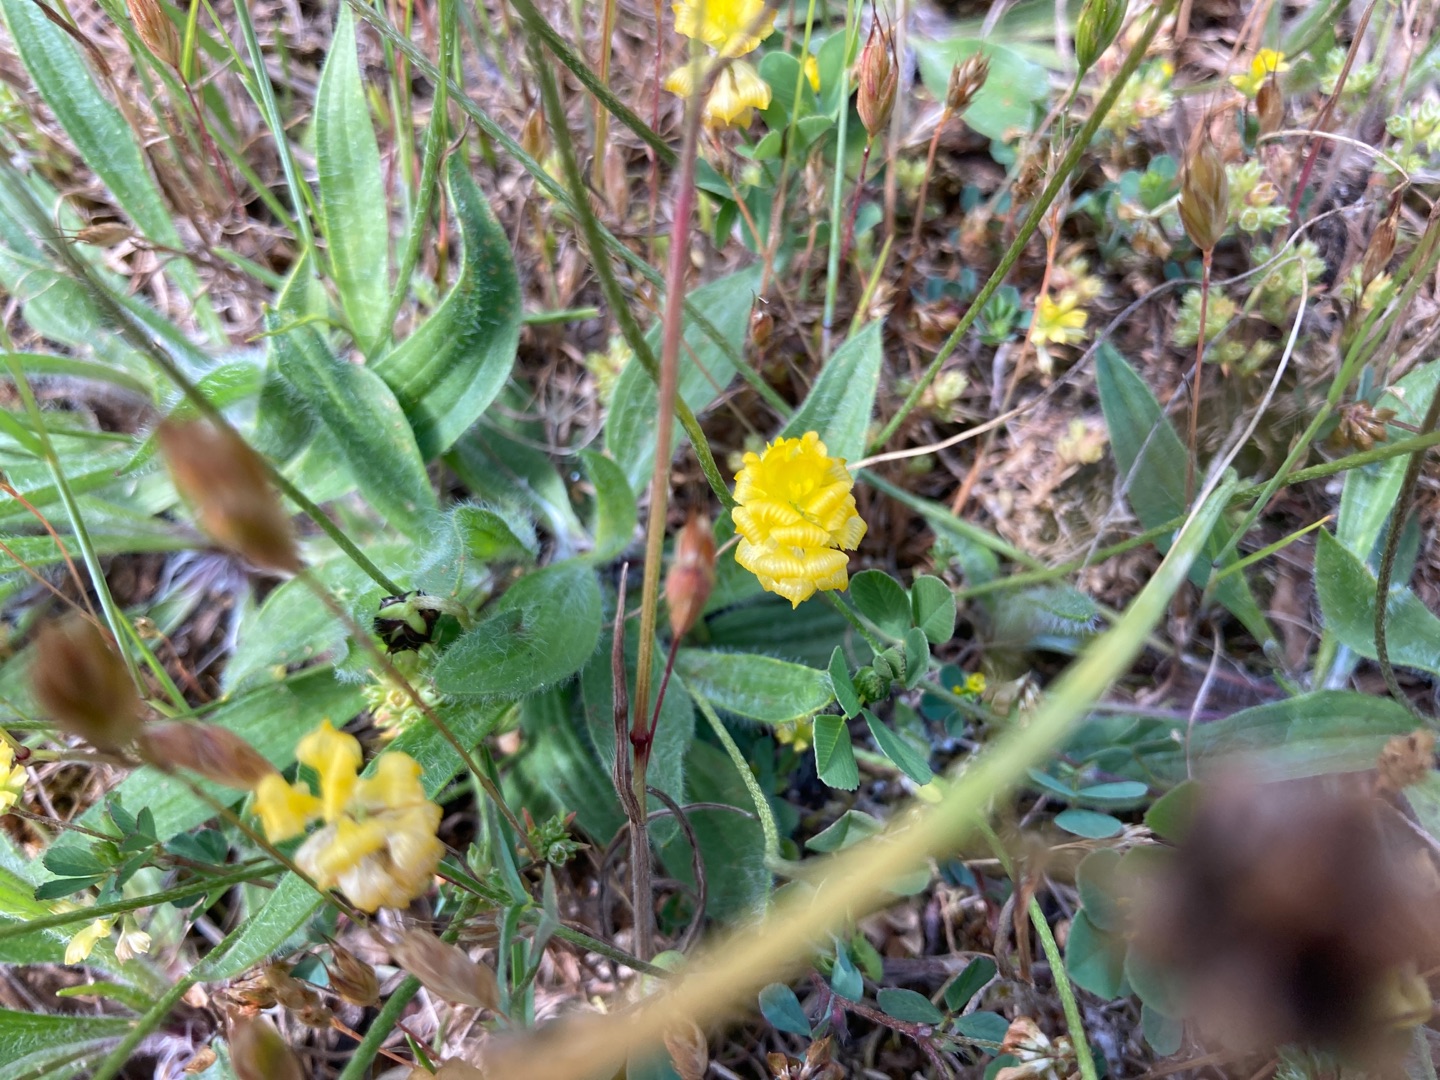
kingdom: Plantae
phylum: Tracheophyta
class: Magnoliopsida
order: Fabales
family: Fabaceae
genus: Trifolium
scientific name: Trifolium campestre
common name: Gul kløver
